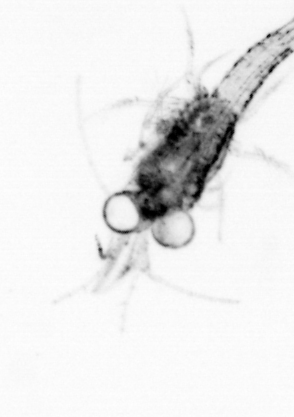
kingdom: Animalia
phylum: Arthropoda
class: Malacostraca
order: Decapoda
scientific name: Decapoda
